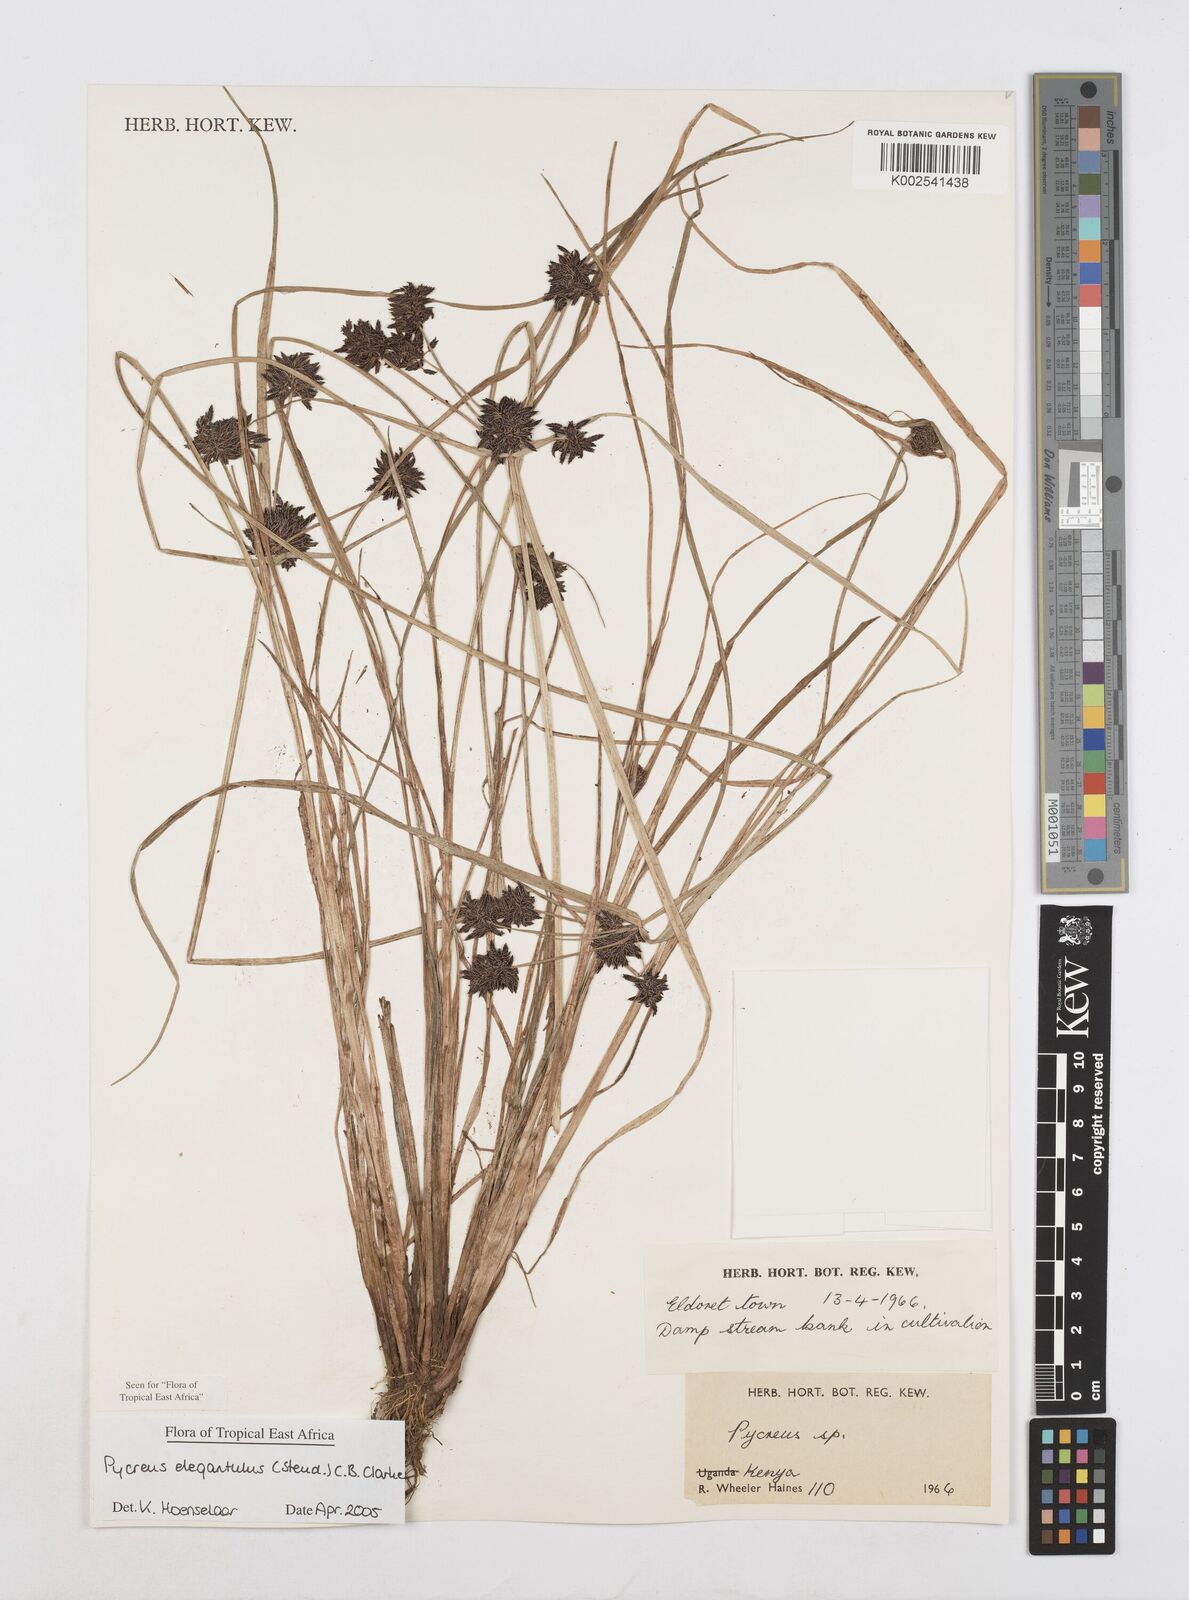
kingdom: Plantae
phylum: Tracheophyta
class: Liliopsida
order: Poales
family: Cyperaceae
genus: Cyperus
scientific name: Cyperus elegantulus
